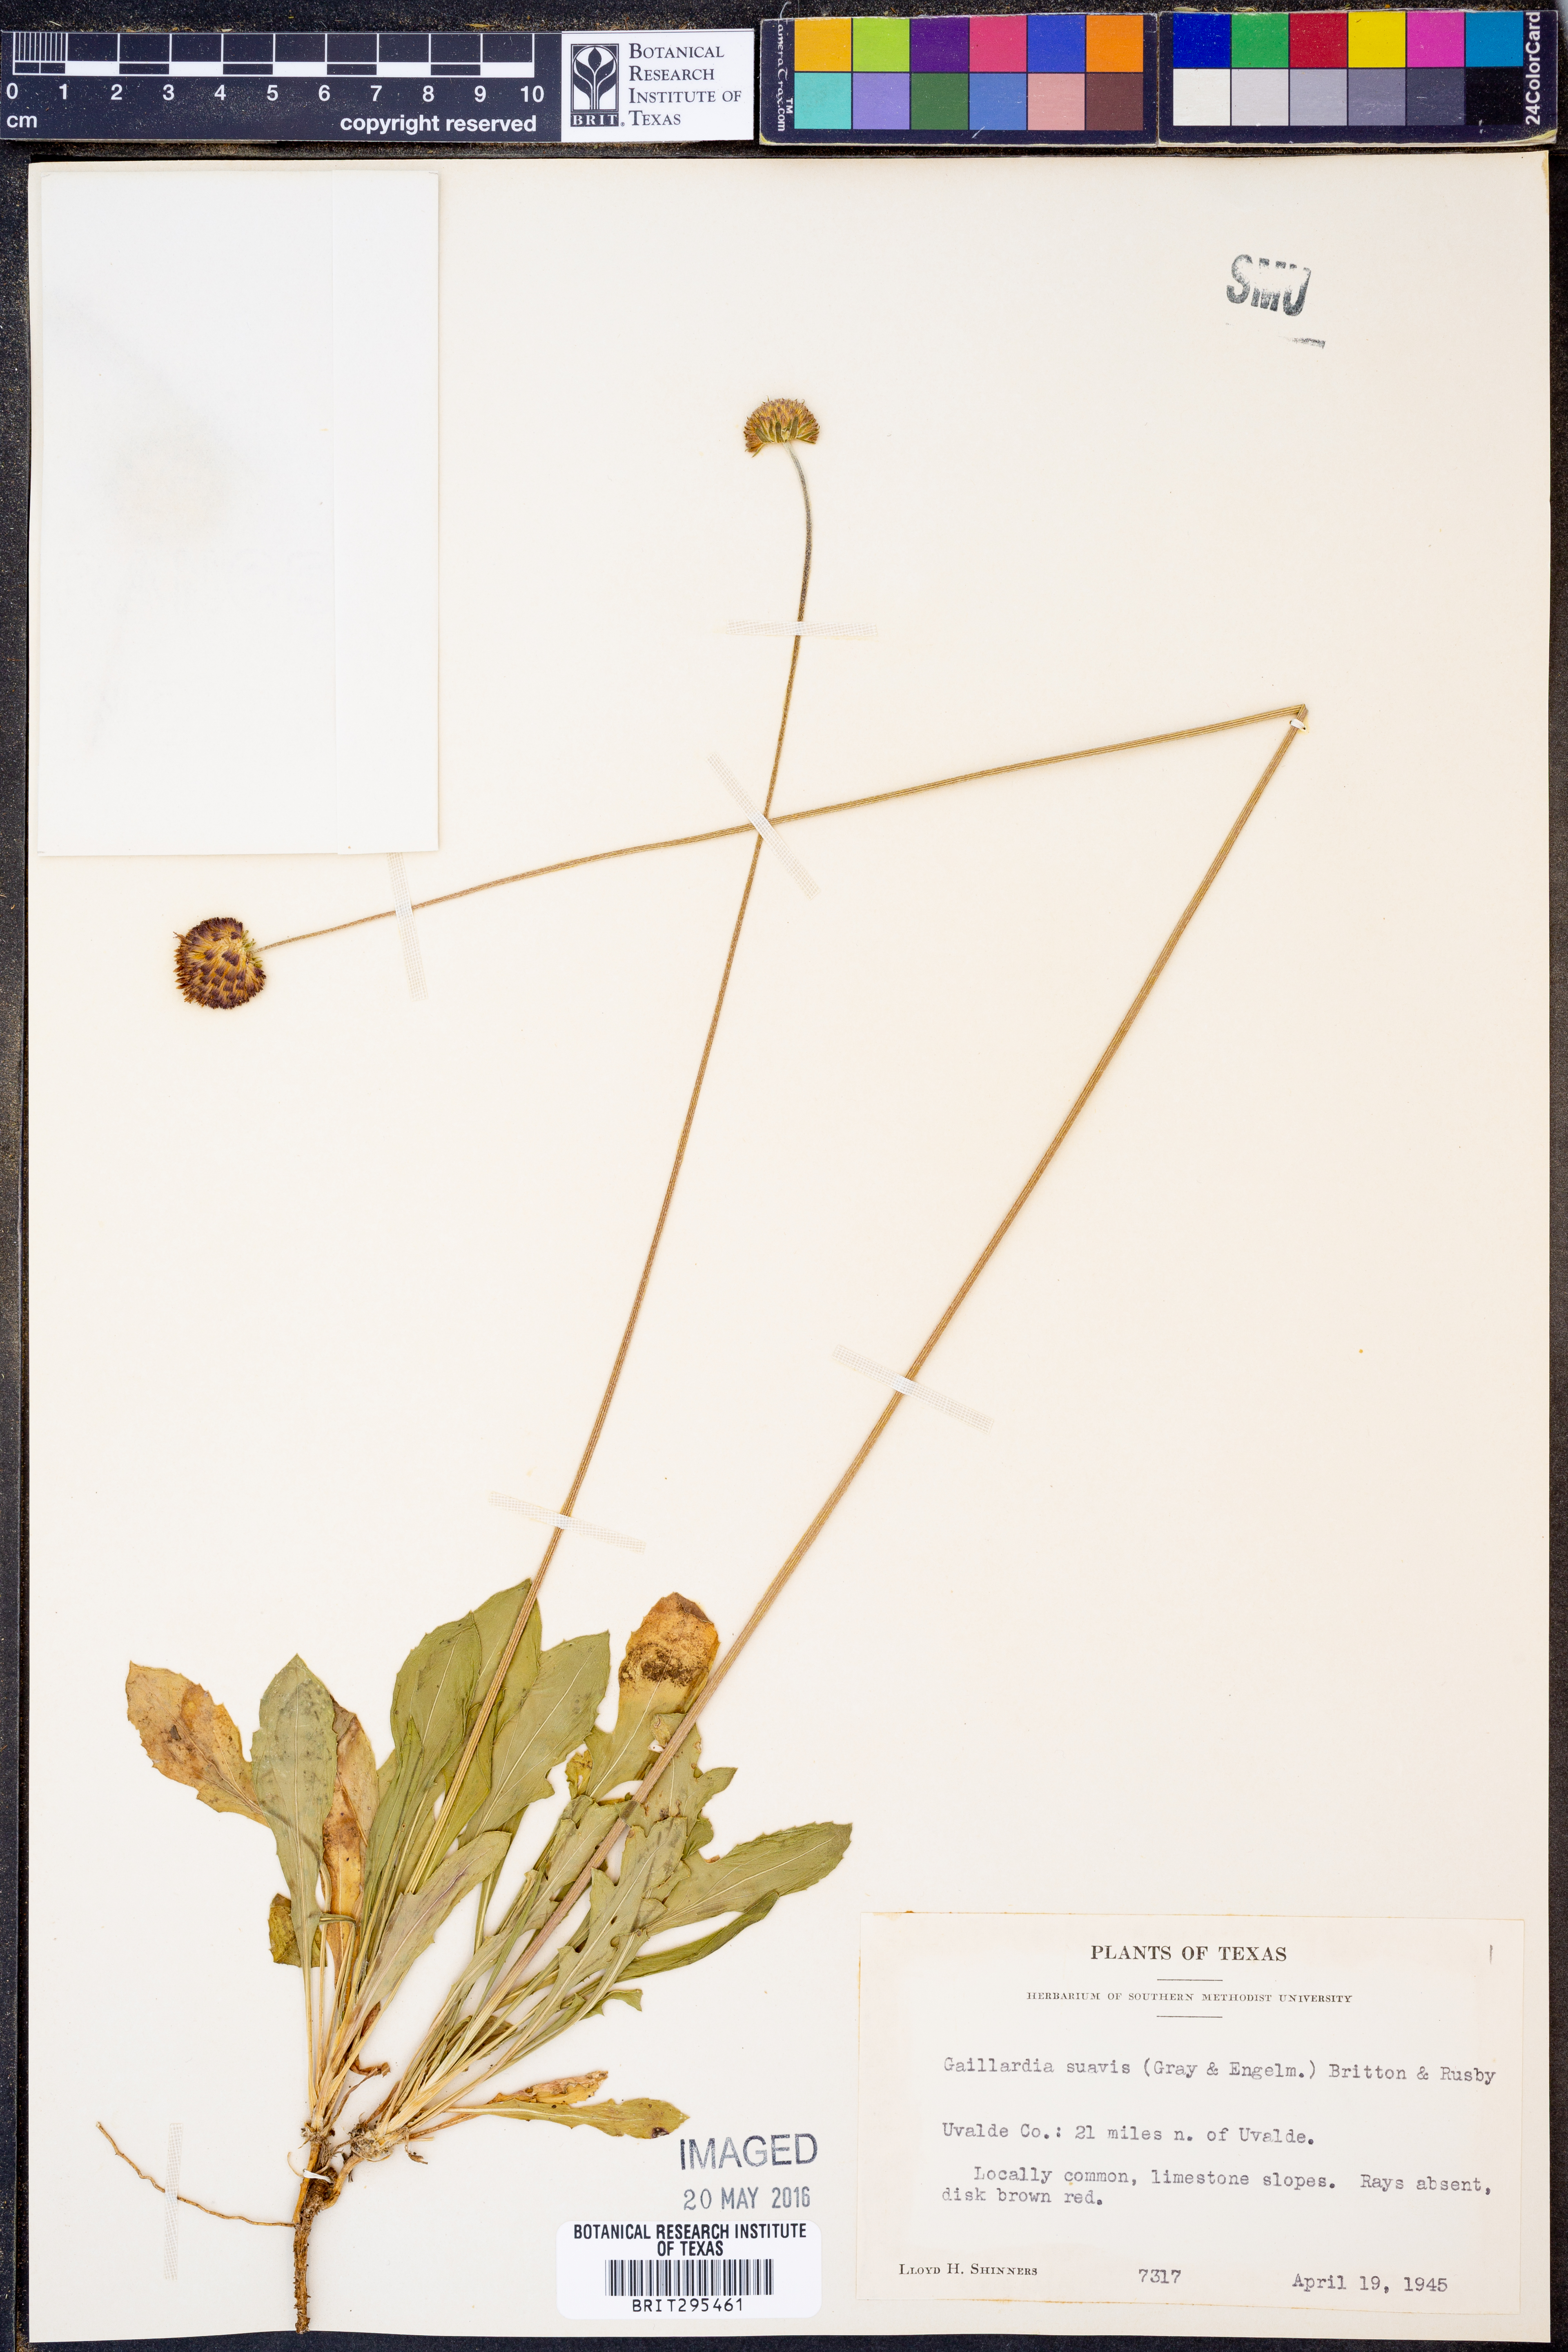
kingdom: Plantae
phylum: Tracheophyta
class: Magnoliopsida
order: Asterales
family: Asteraceae
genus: Gaillardia
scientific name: Gaillardia suavis
